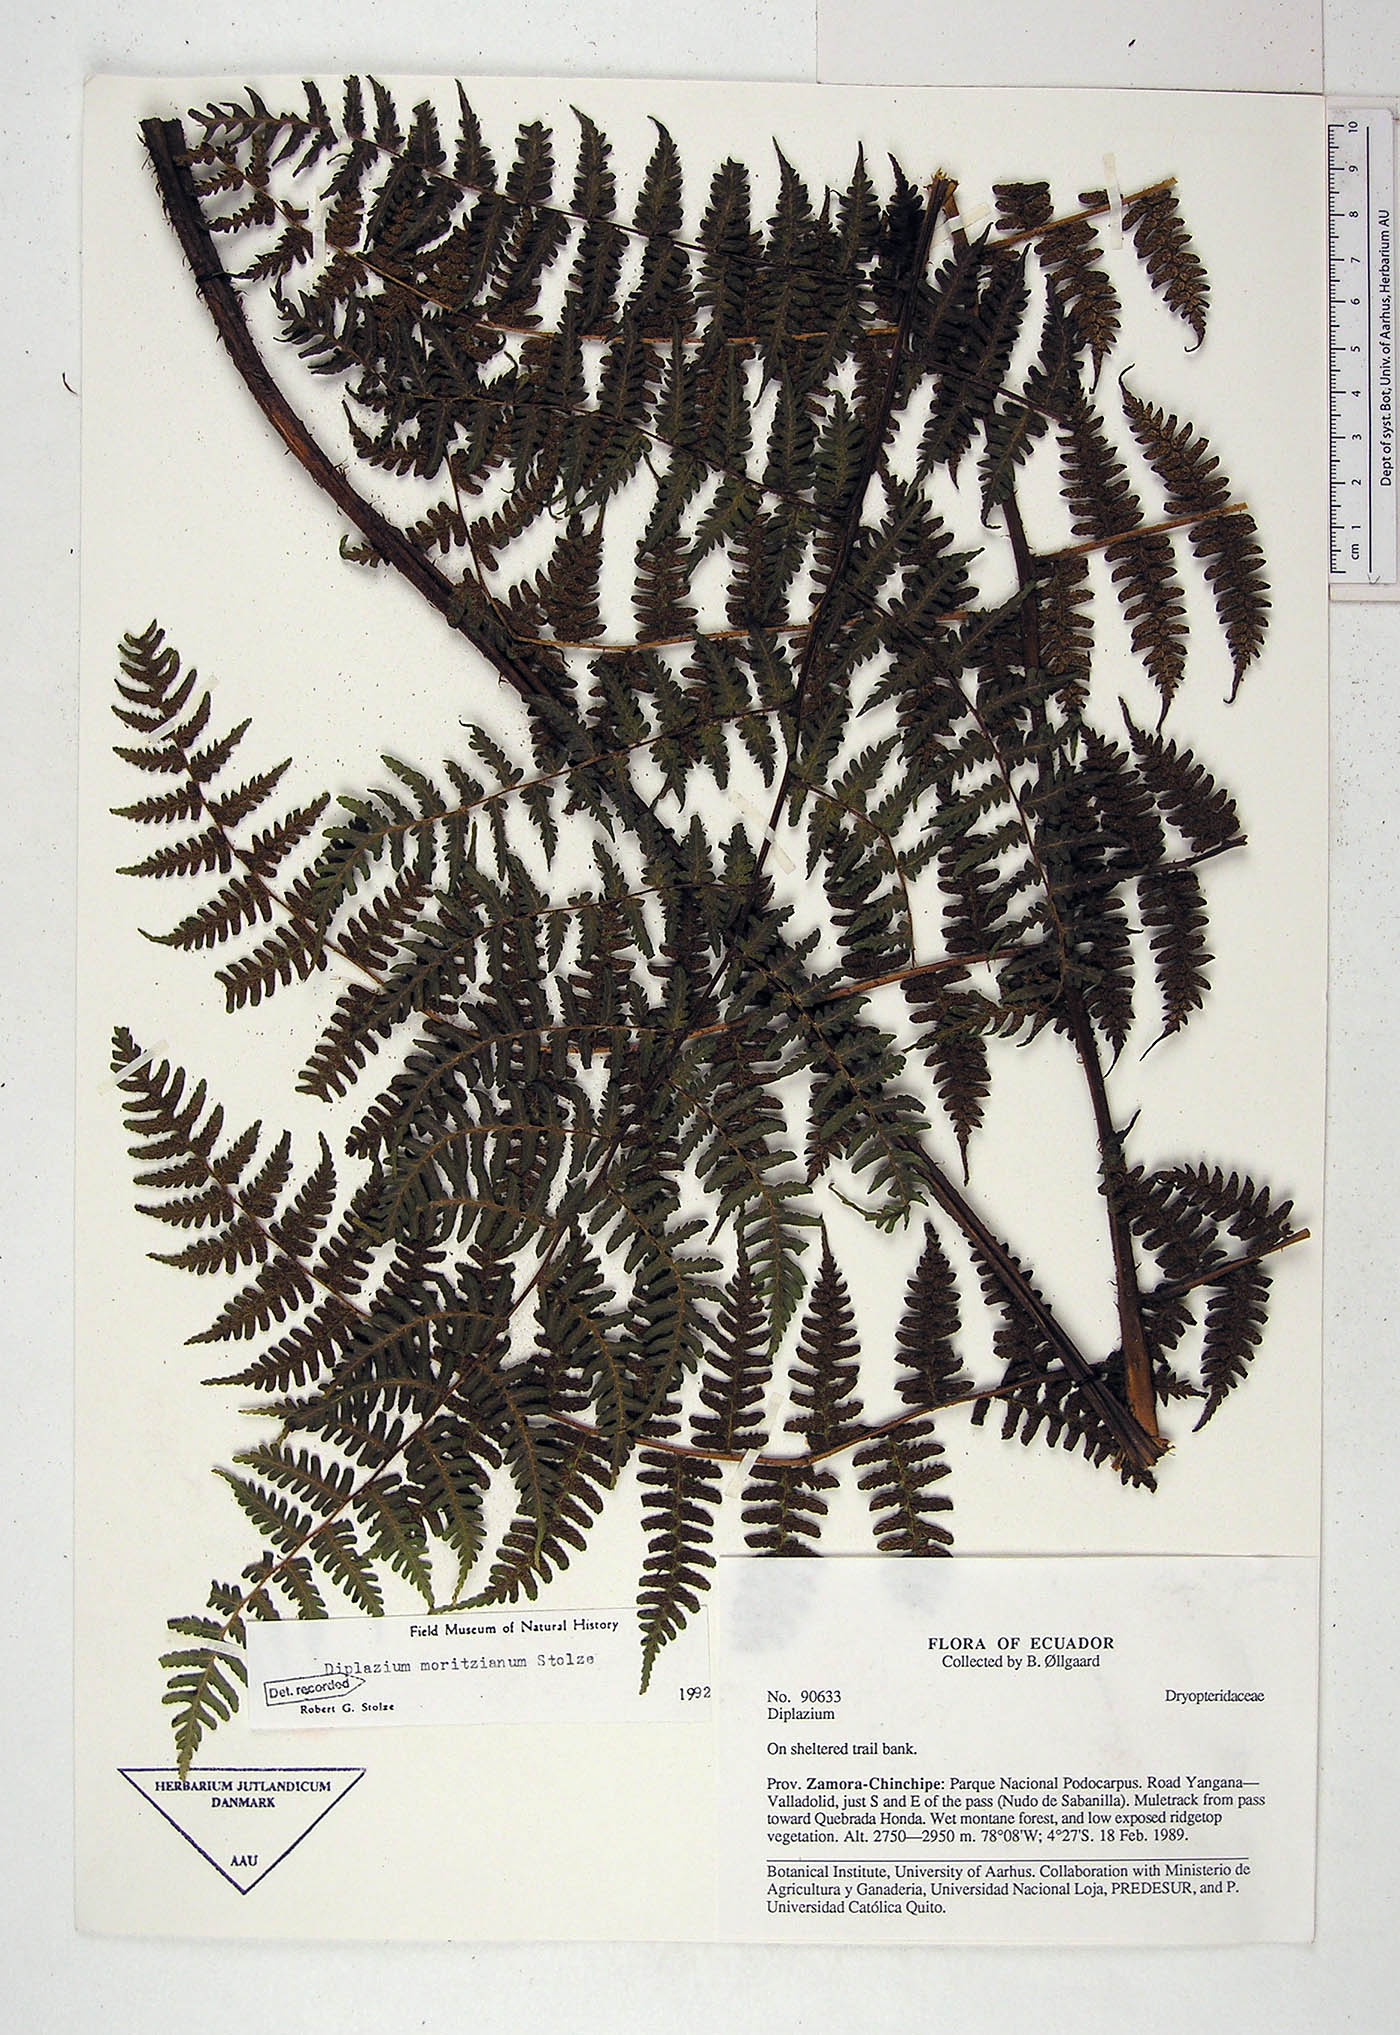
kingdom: Plantae
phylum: Tracheophyta
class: Polypodiopsida
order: Polypodiales
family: Athyriaceae
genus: Diplazium
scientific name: Diplazium moritzianum
